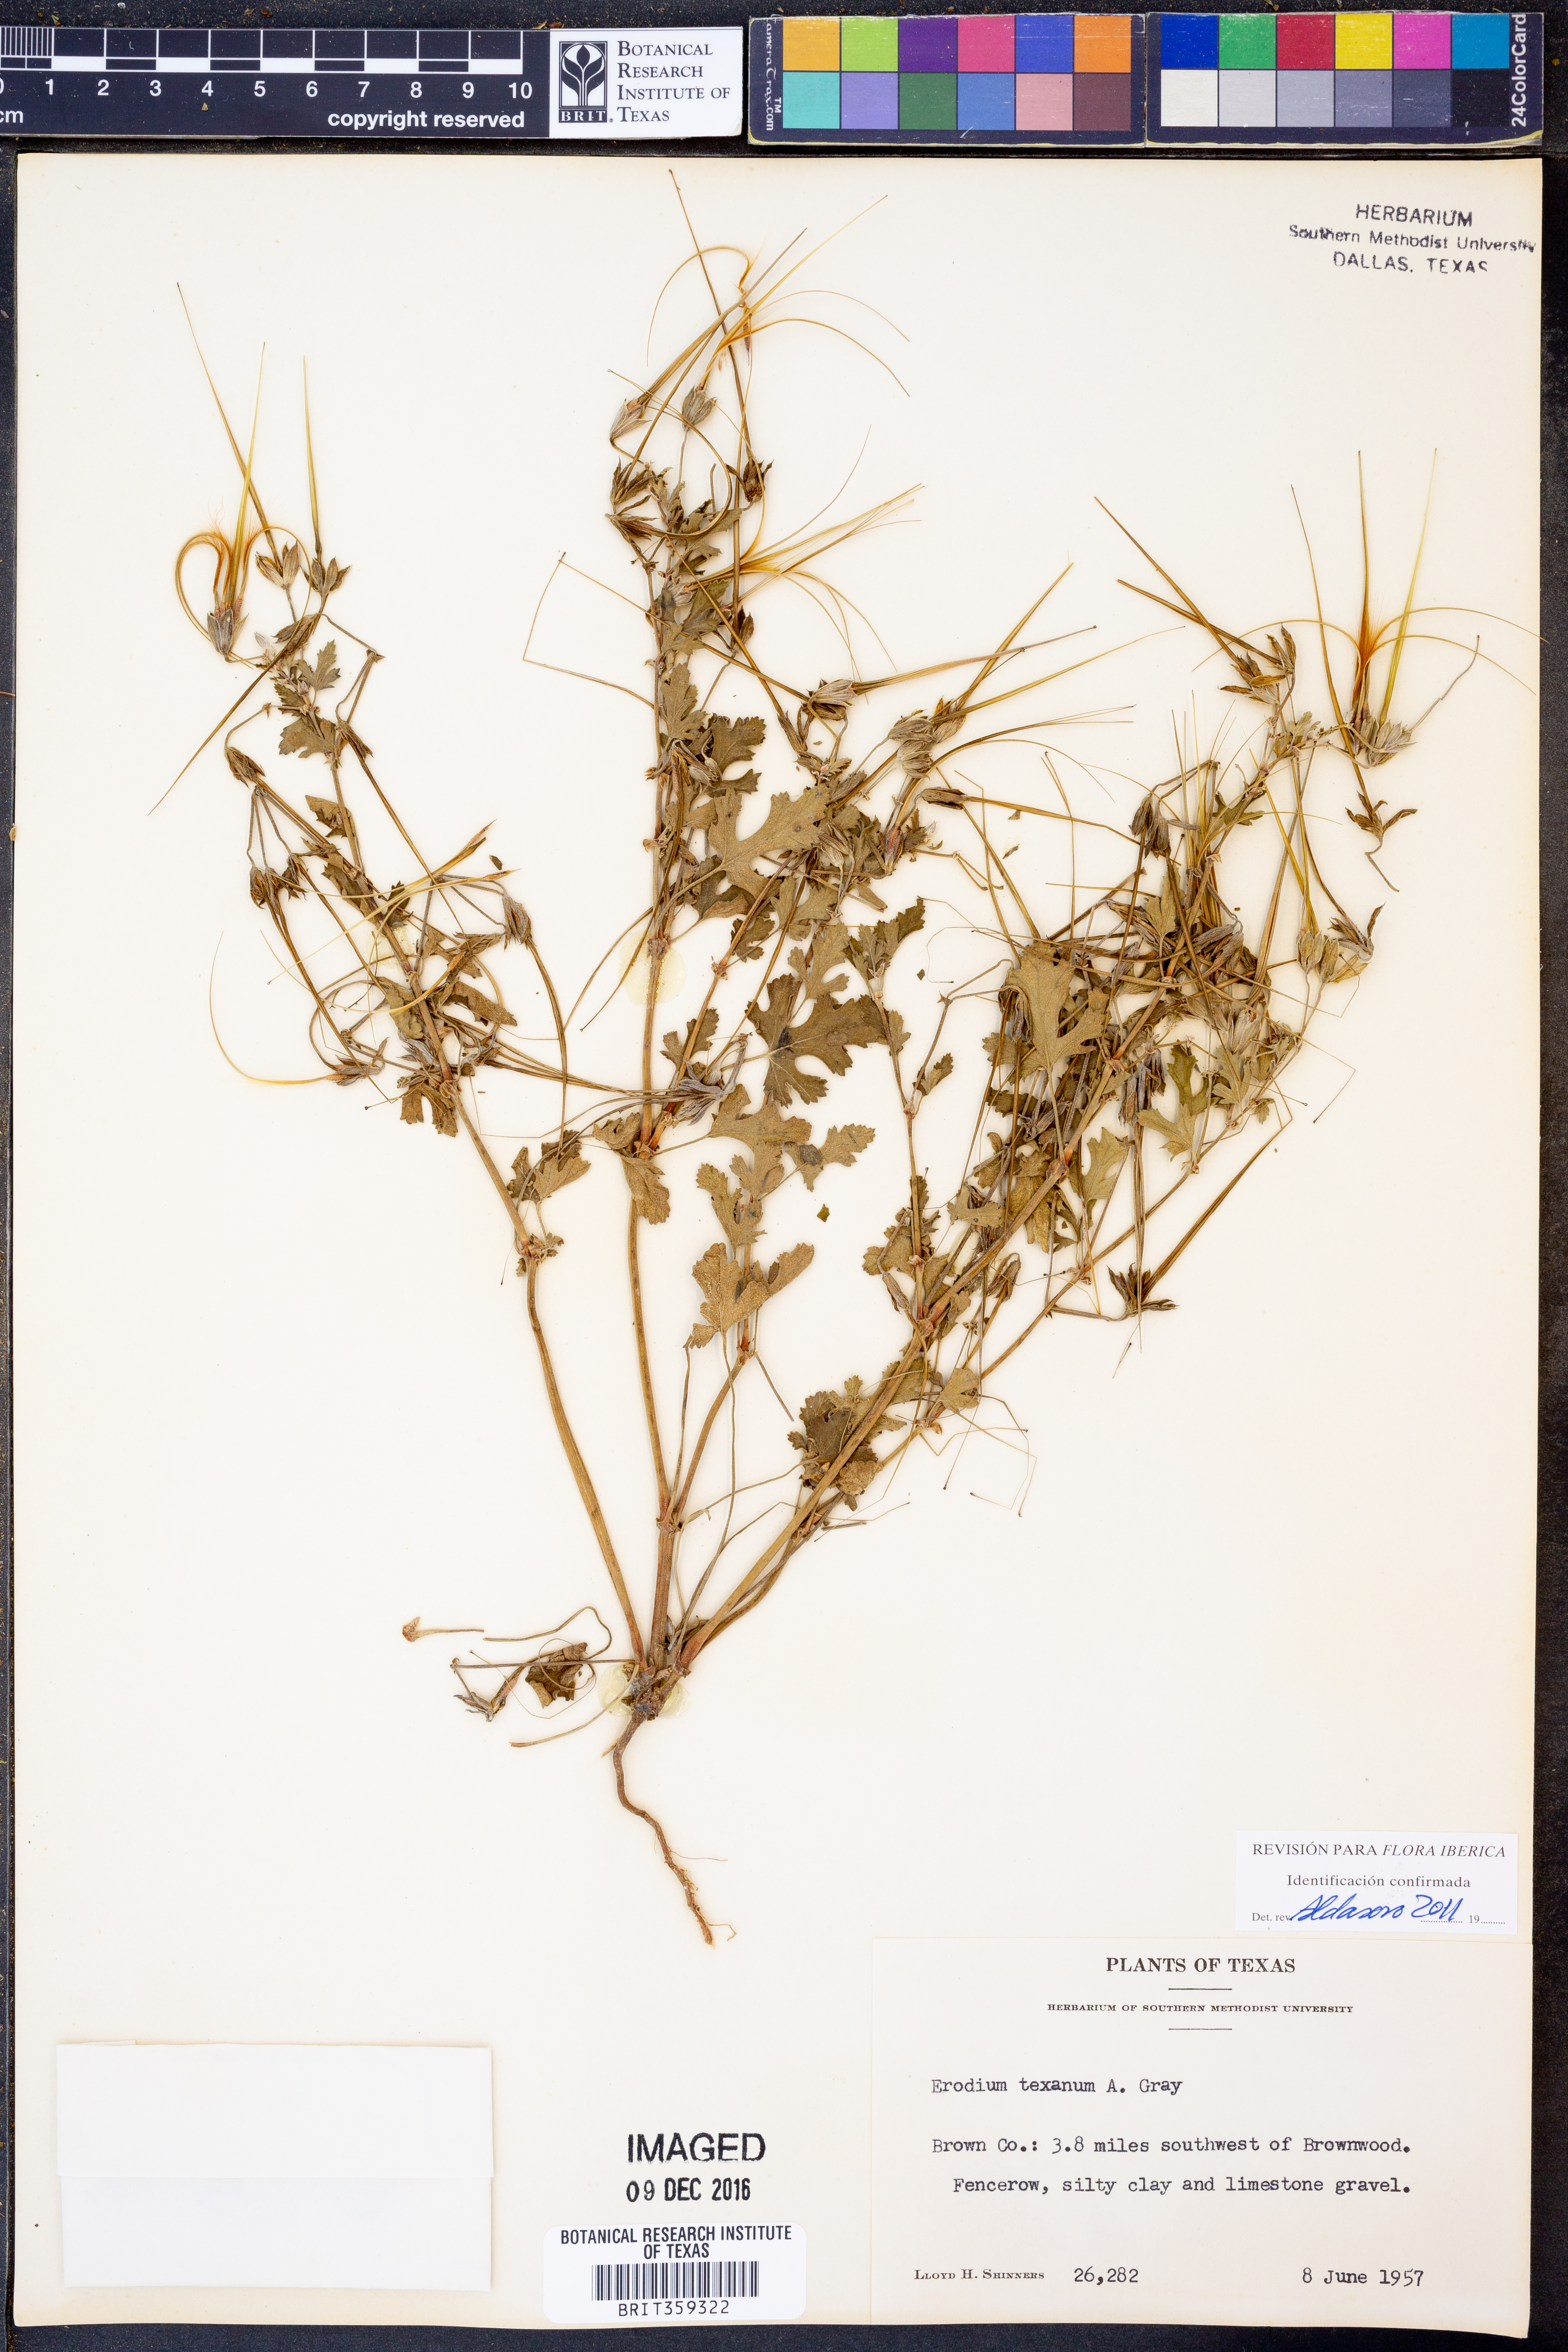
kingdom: Plantae
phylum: Tracheophyta
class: Magnoliopsida
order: Geraniales
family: Geraniaceae
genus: Erodium
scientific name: Erodium texanum
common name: Texas stork's-bill
